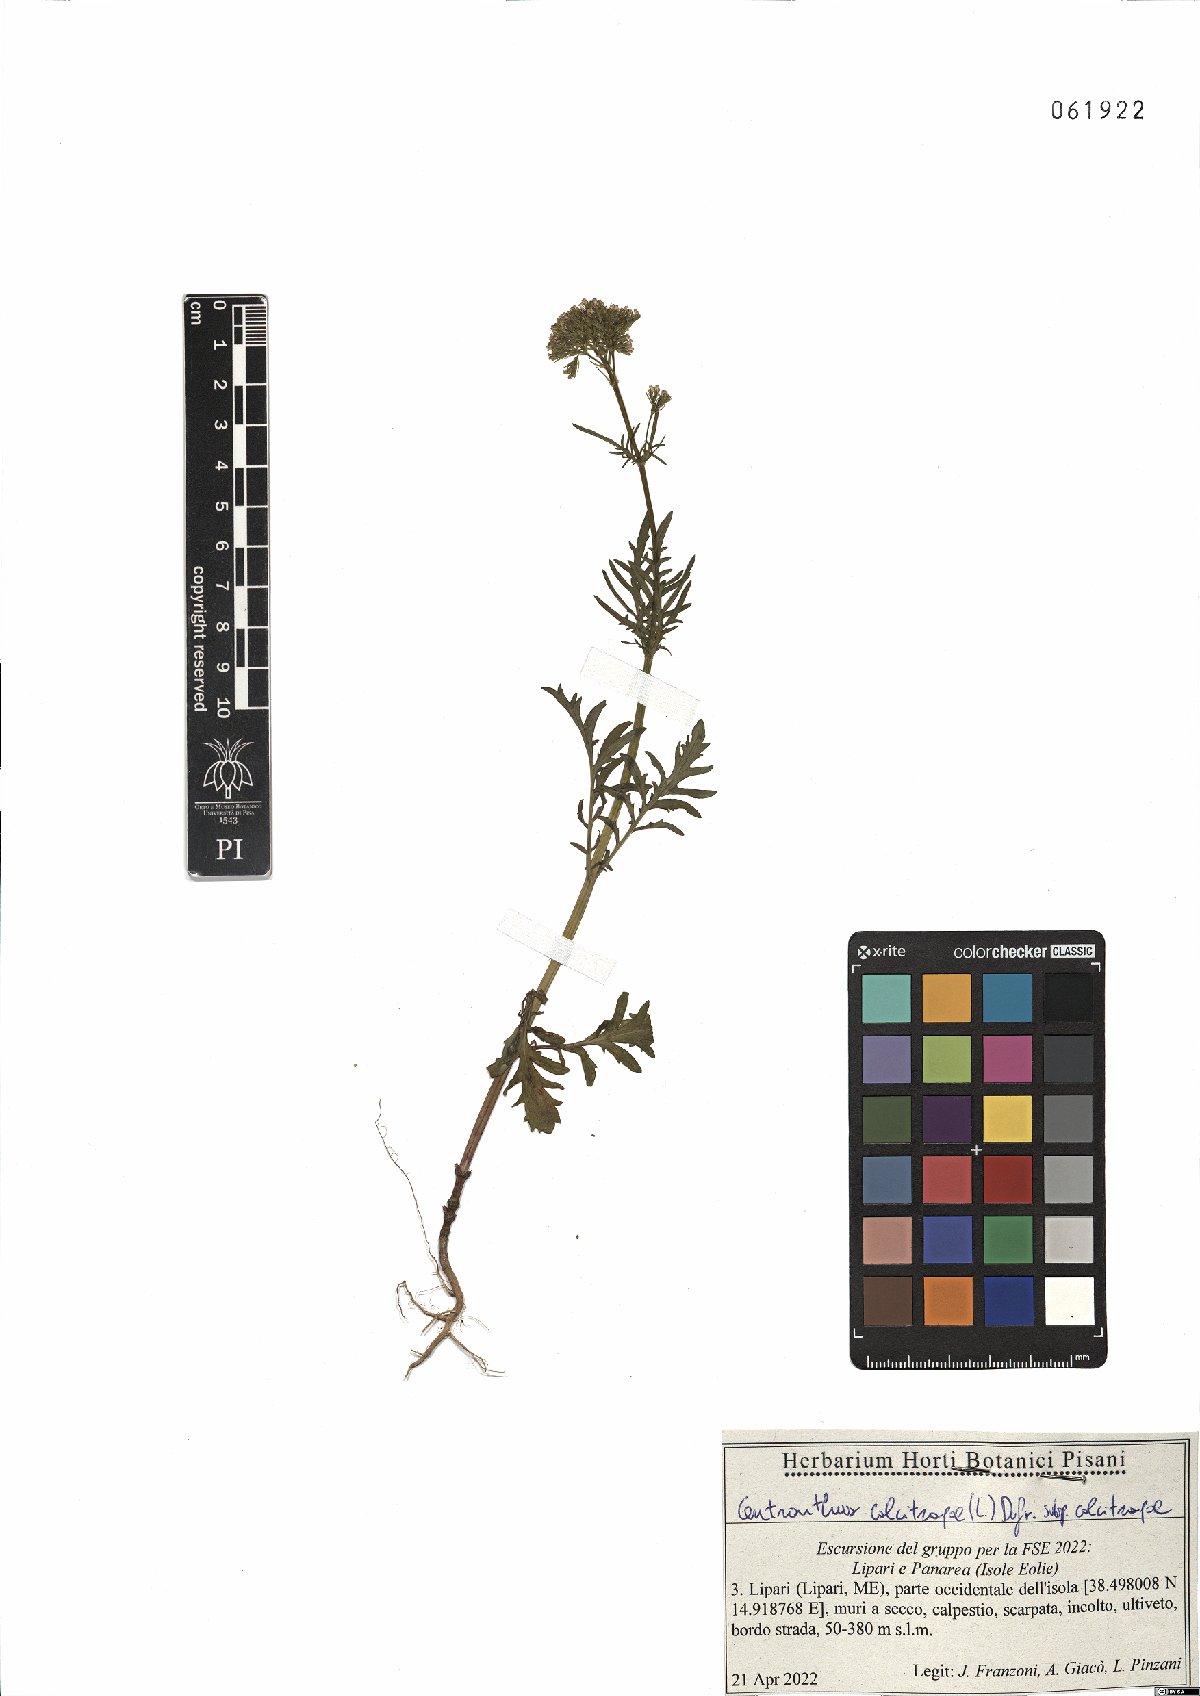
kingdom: Plantae
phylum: Tracheophyta
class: Magnoliopsida
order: Dipsacales
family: Caprifoliaceae
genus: Centranthus
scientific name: Centranthus calcitrapae
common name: Annual valerian
